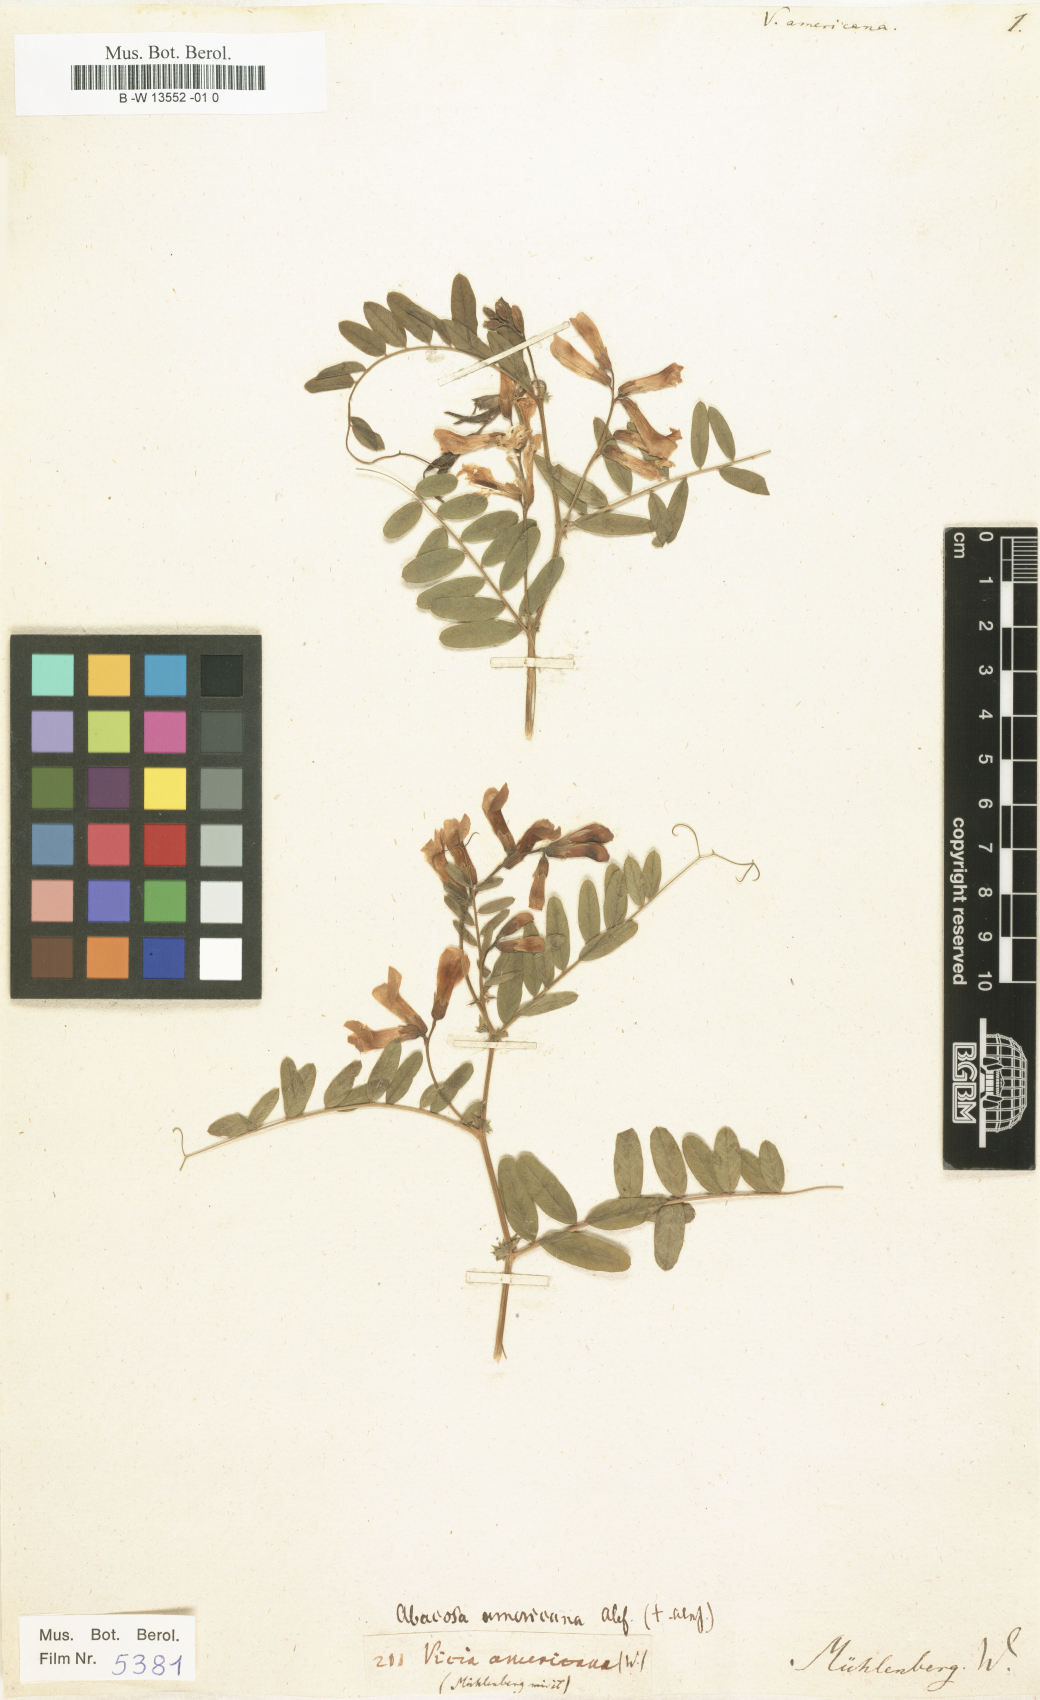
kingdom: Plantae
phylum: Tracheophyta
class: Magnoliopsida
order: Fabales
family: Fabaceae
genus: Vicia
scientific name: Vicia americana
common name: American vetch
